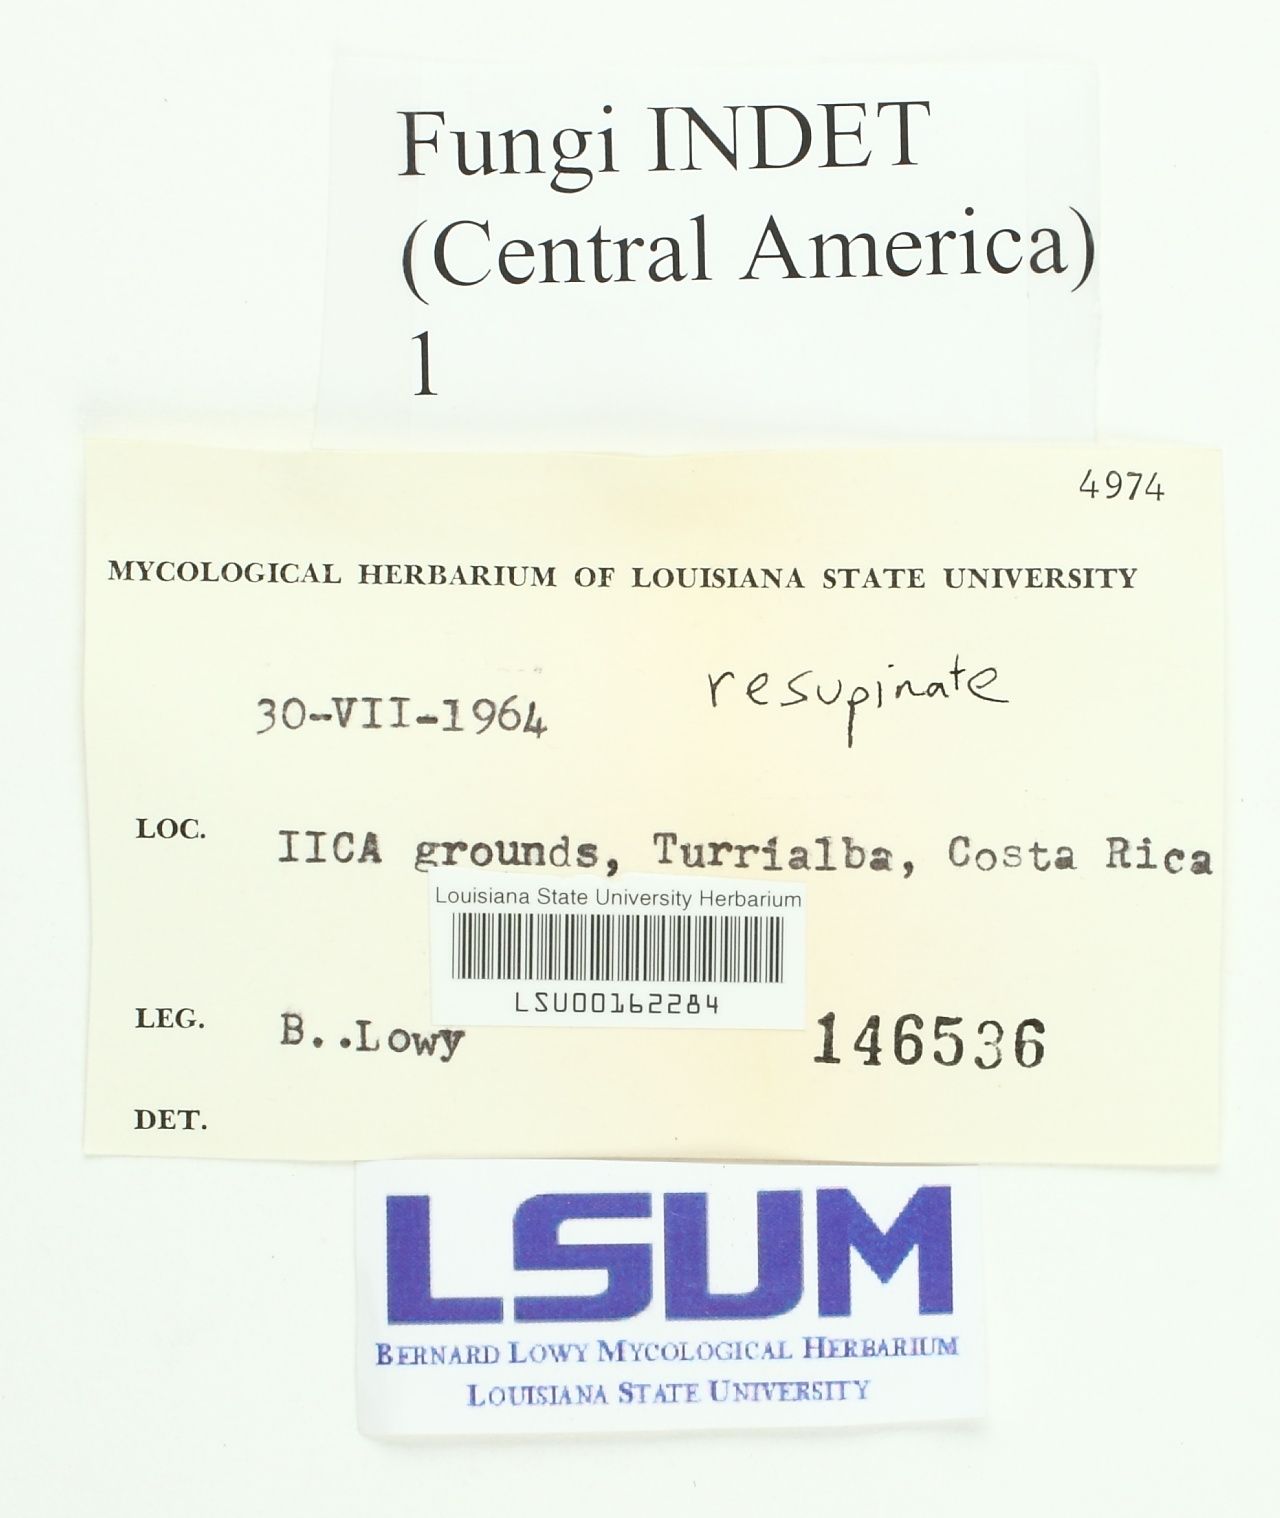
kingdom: Fungi
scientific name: Fungi
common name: Fungi
